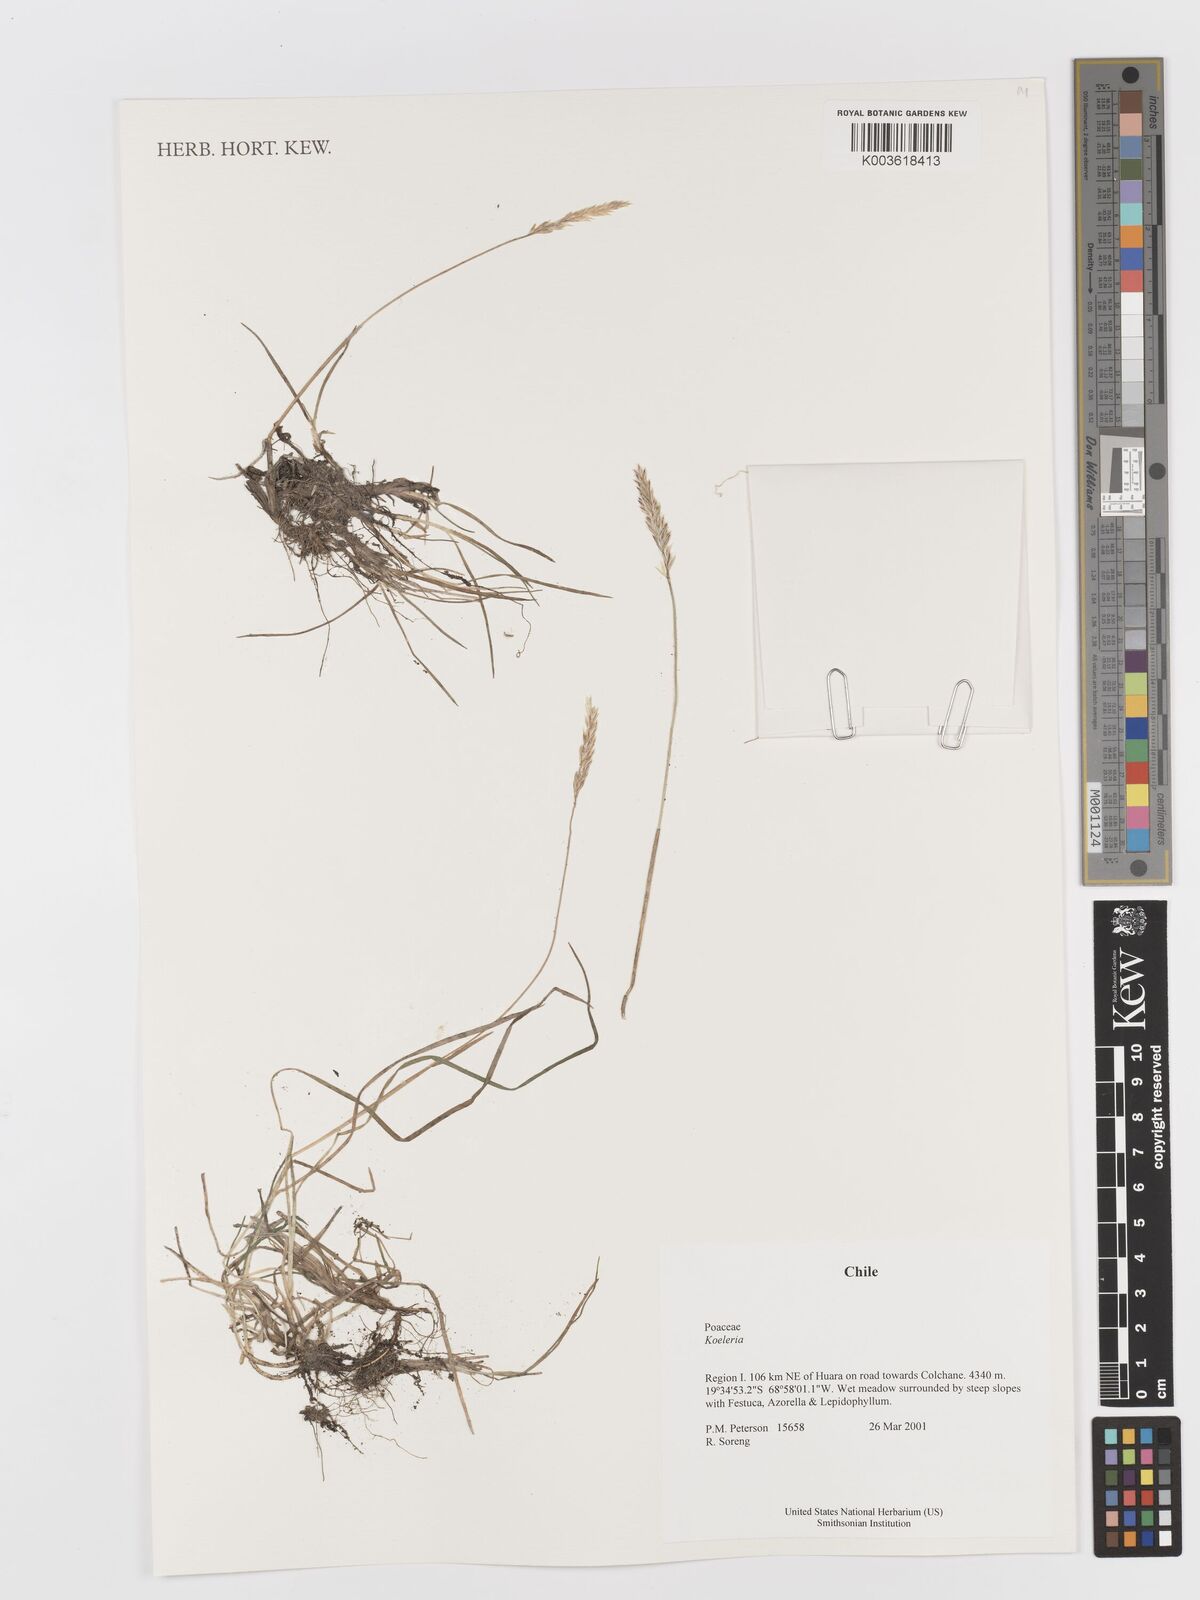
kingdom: Plantae
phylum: Tracheophyta
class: Liliopsida
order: Poales
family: Poaceae
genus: Koeleria
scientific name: Koeleria
